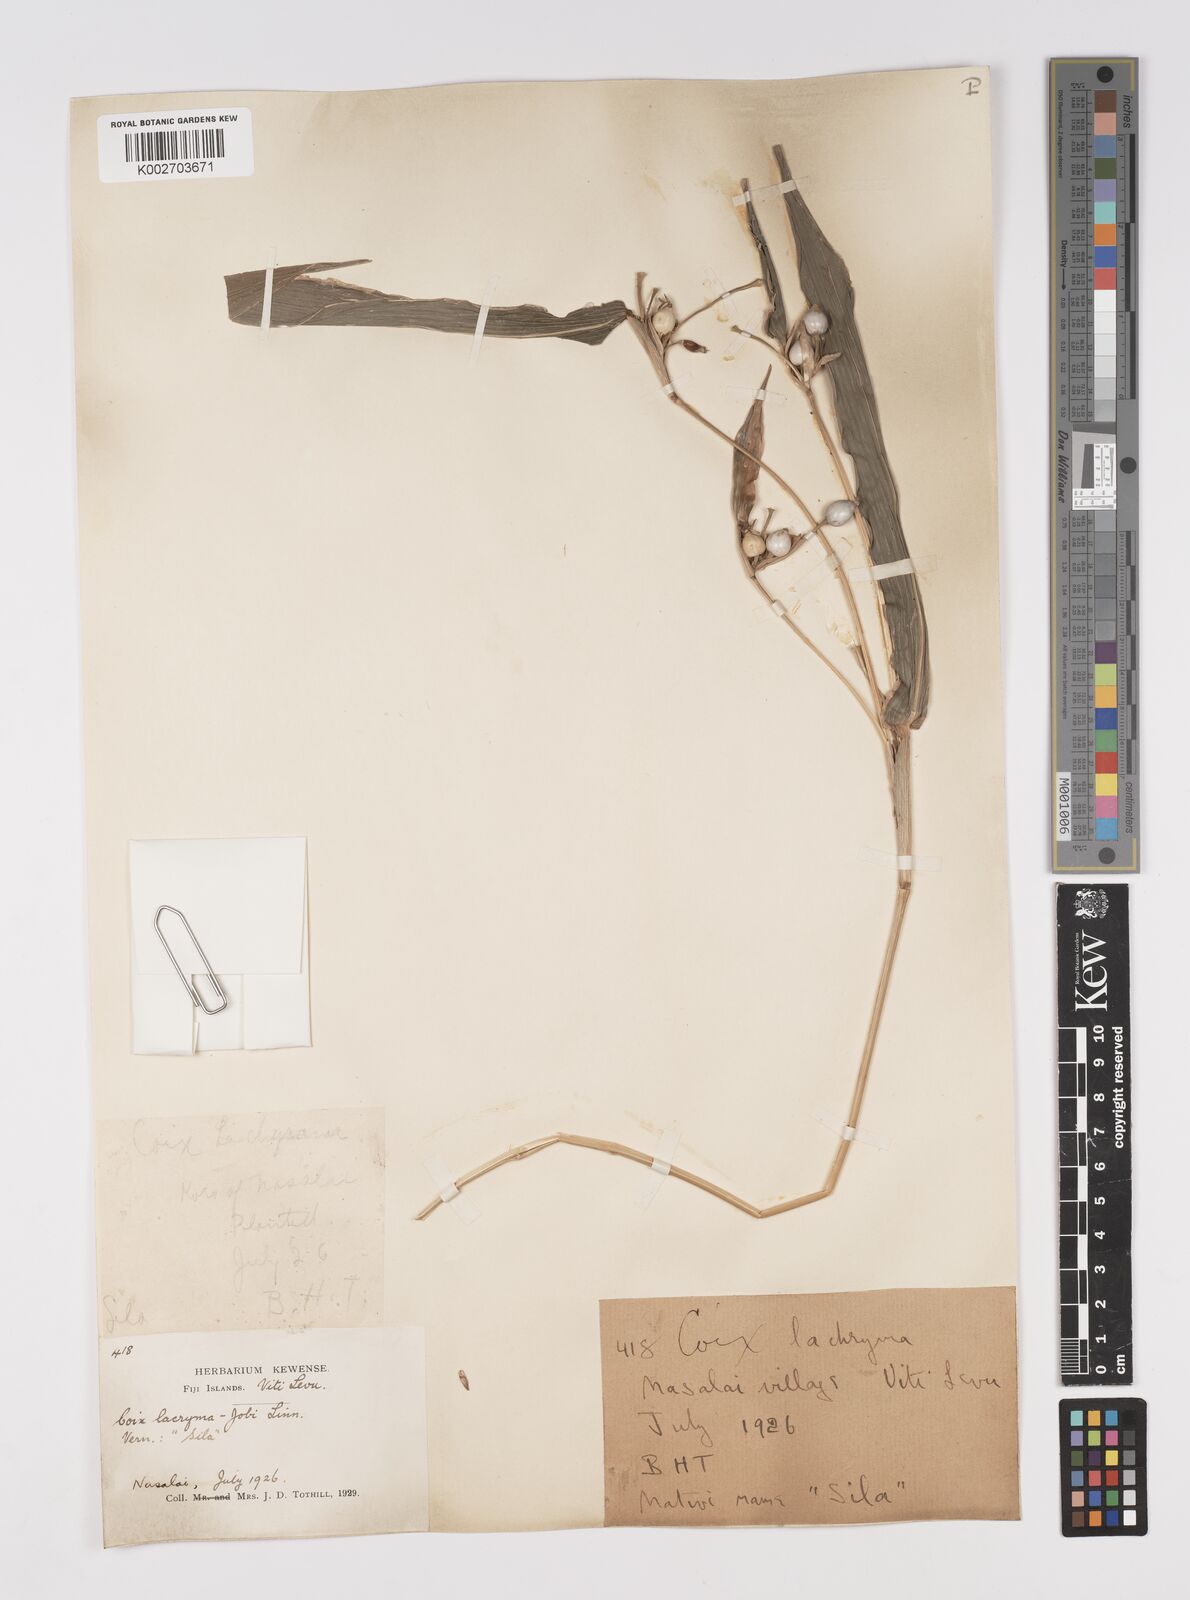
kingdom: Plantae
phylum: Tracheophyta
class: Liliopsida
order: Poales
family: Poaceae
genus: Coix
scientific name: Coix lacryma-jobi
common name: Job's tears
